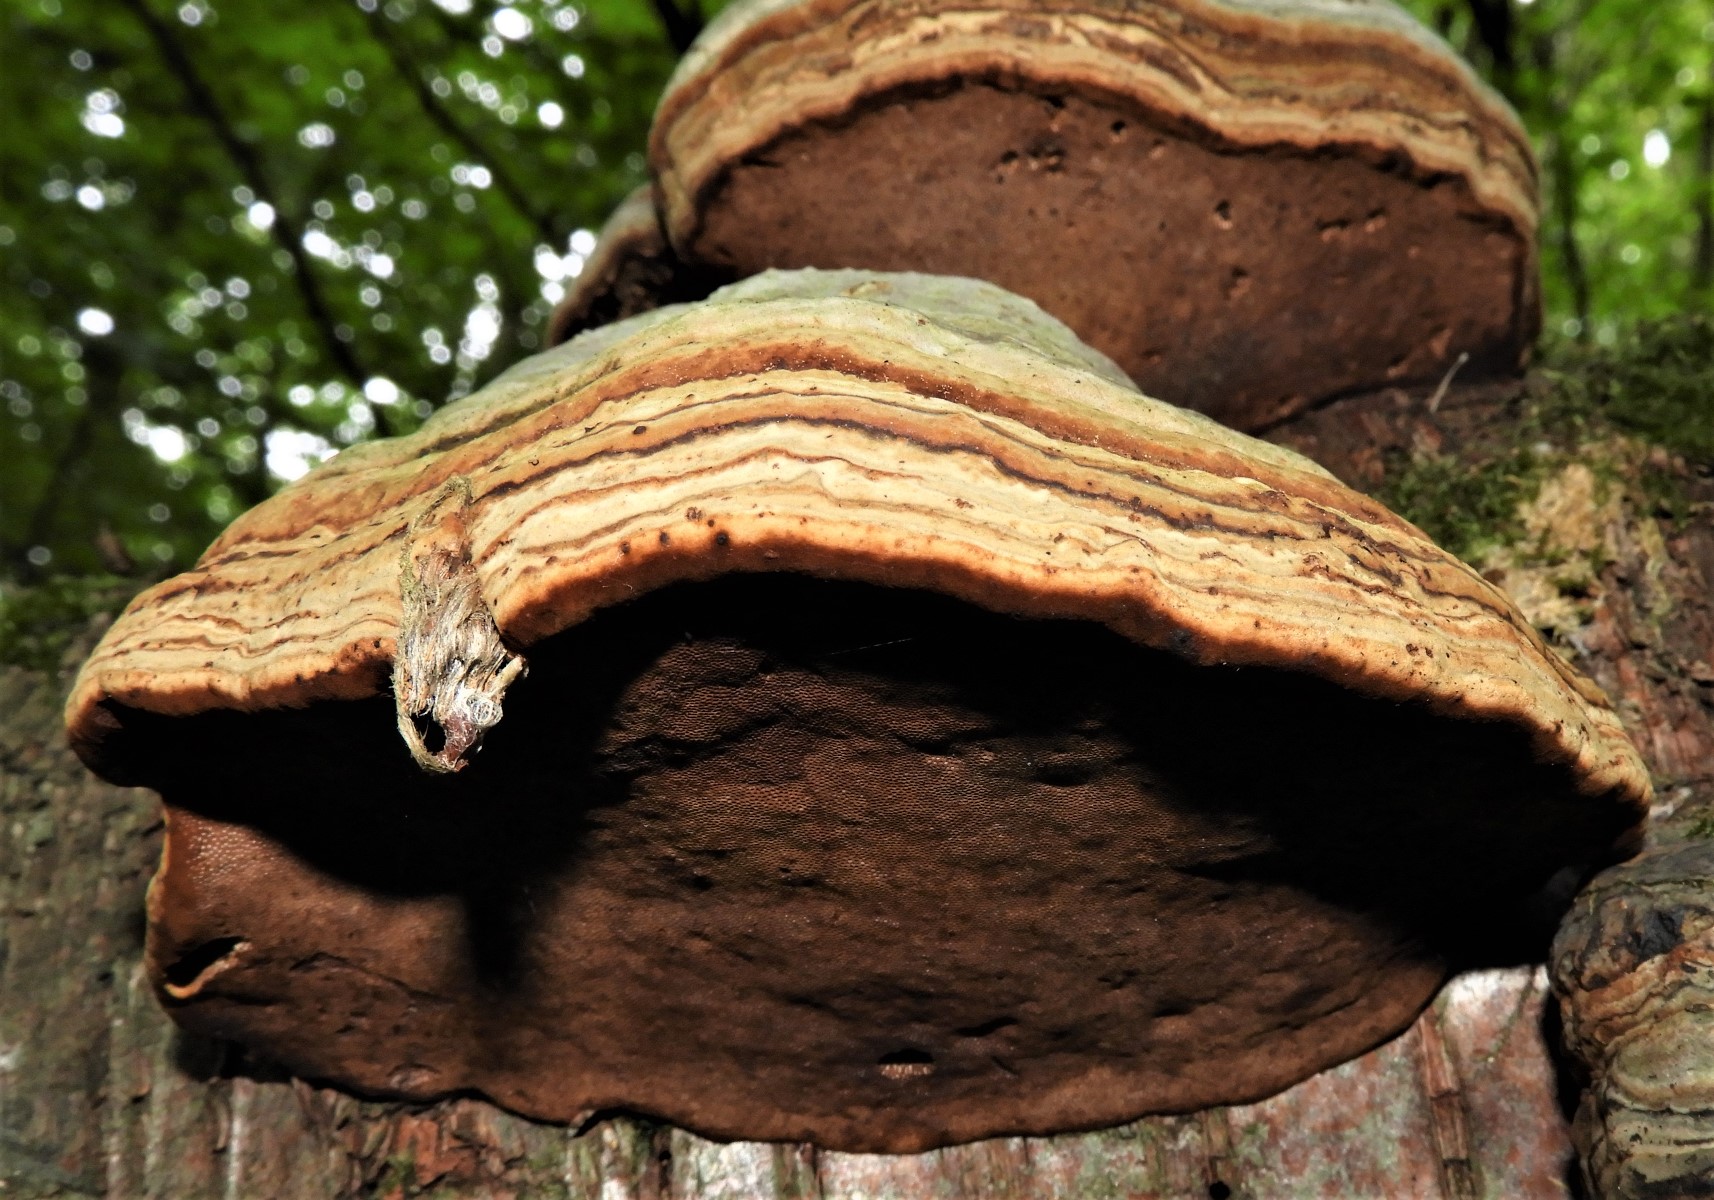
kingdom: Fungi
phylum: Basidiomycota
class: Agaricomycetes
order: Polyporales
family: Polyporaceae
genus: Fomes
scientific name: Fomes fomentarius
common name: tøndersvamp
